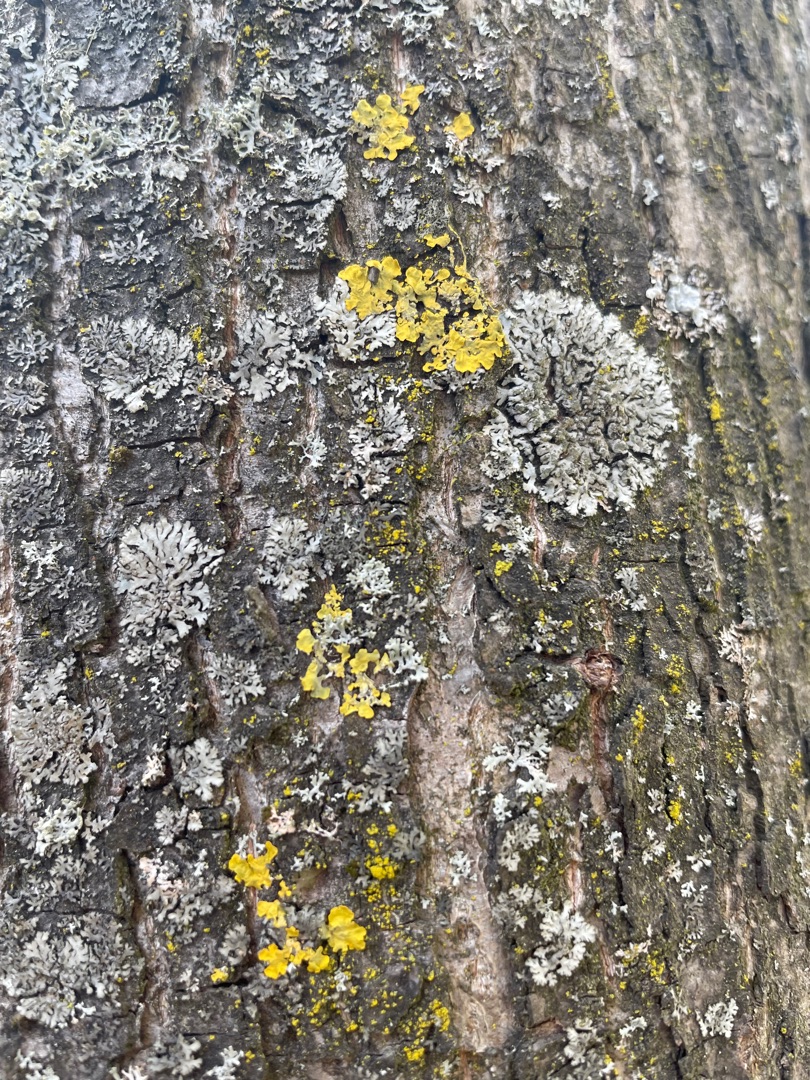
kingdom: Fungi
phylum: Ascomycota
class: Lecanoromycetes
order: Teloschistales
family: Teloschistaceae
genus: Xanthoria
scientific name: Xanthoria parietina
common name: Almindelig væggelav
